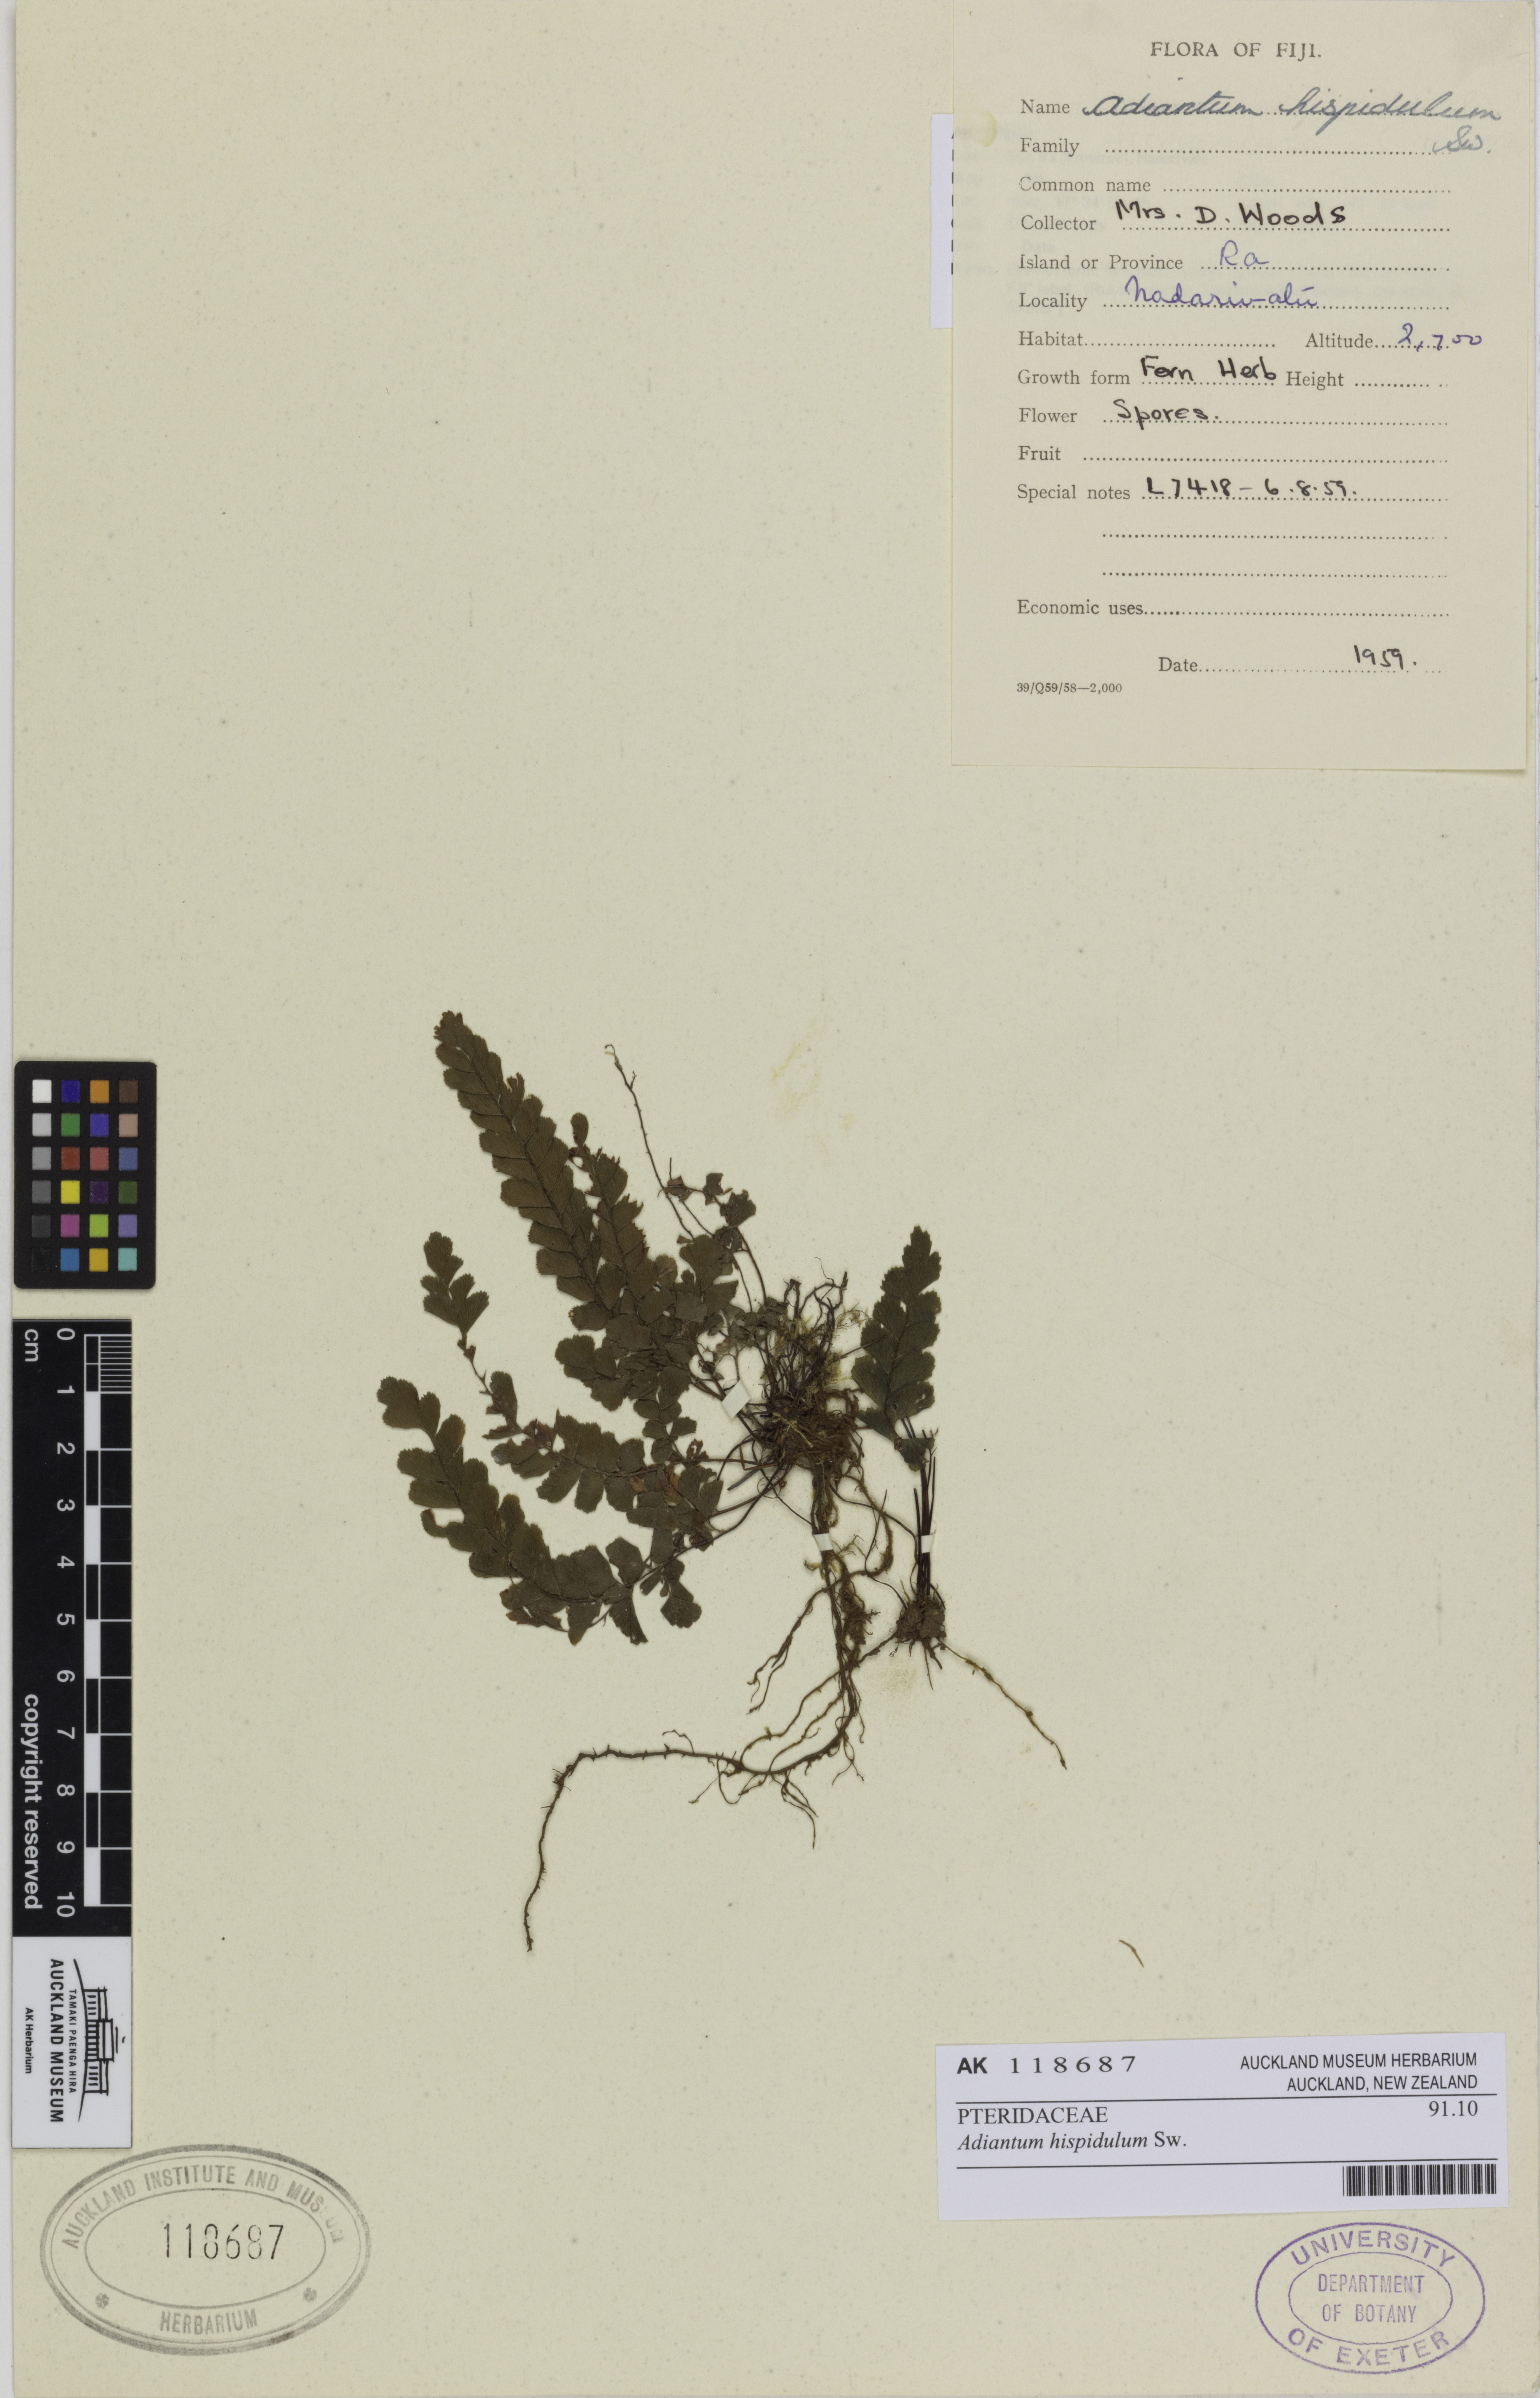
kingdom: Plantae
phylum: Tracheophyta
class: Polypodiopsida
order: Polypodiales
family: Pteridaceae
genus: Adiantum
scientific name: Adiantum hispidulum
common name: Rough maidenhair
